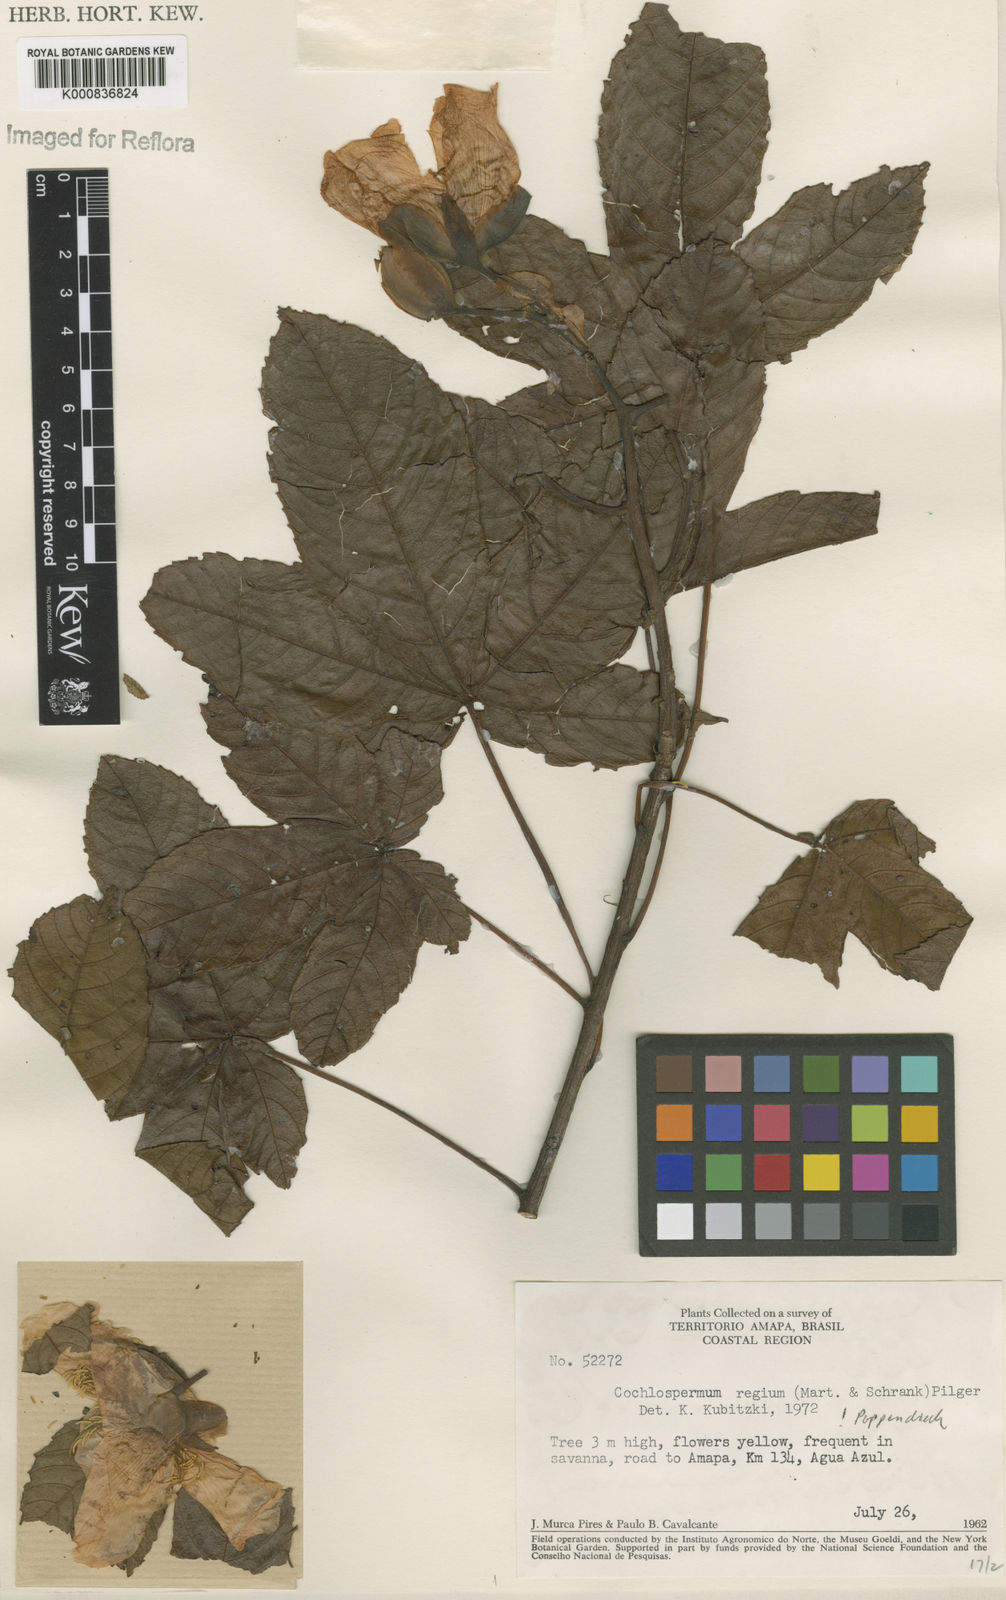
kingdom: Plantae
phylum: Tracheophyta
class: Magnoliopsida
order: Malvales
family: Cochlospermaceae
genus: Cochlospermum
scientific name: Cochlospermum regium
